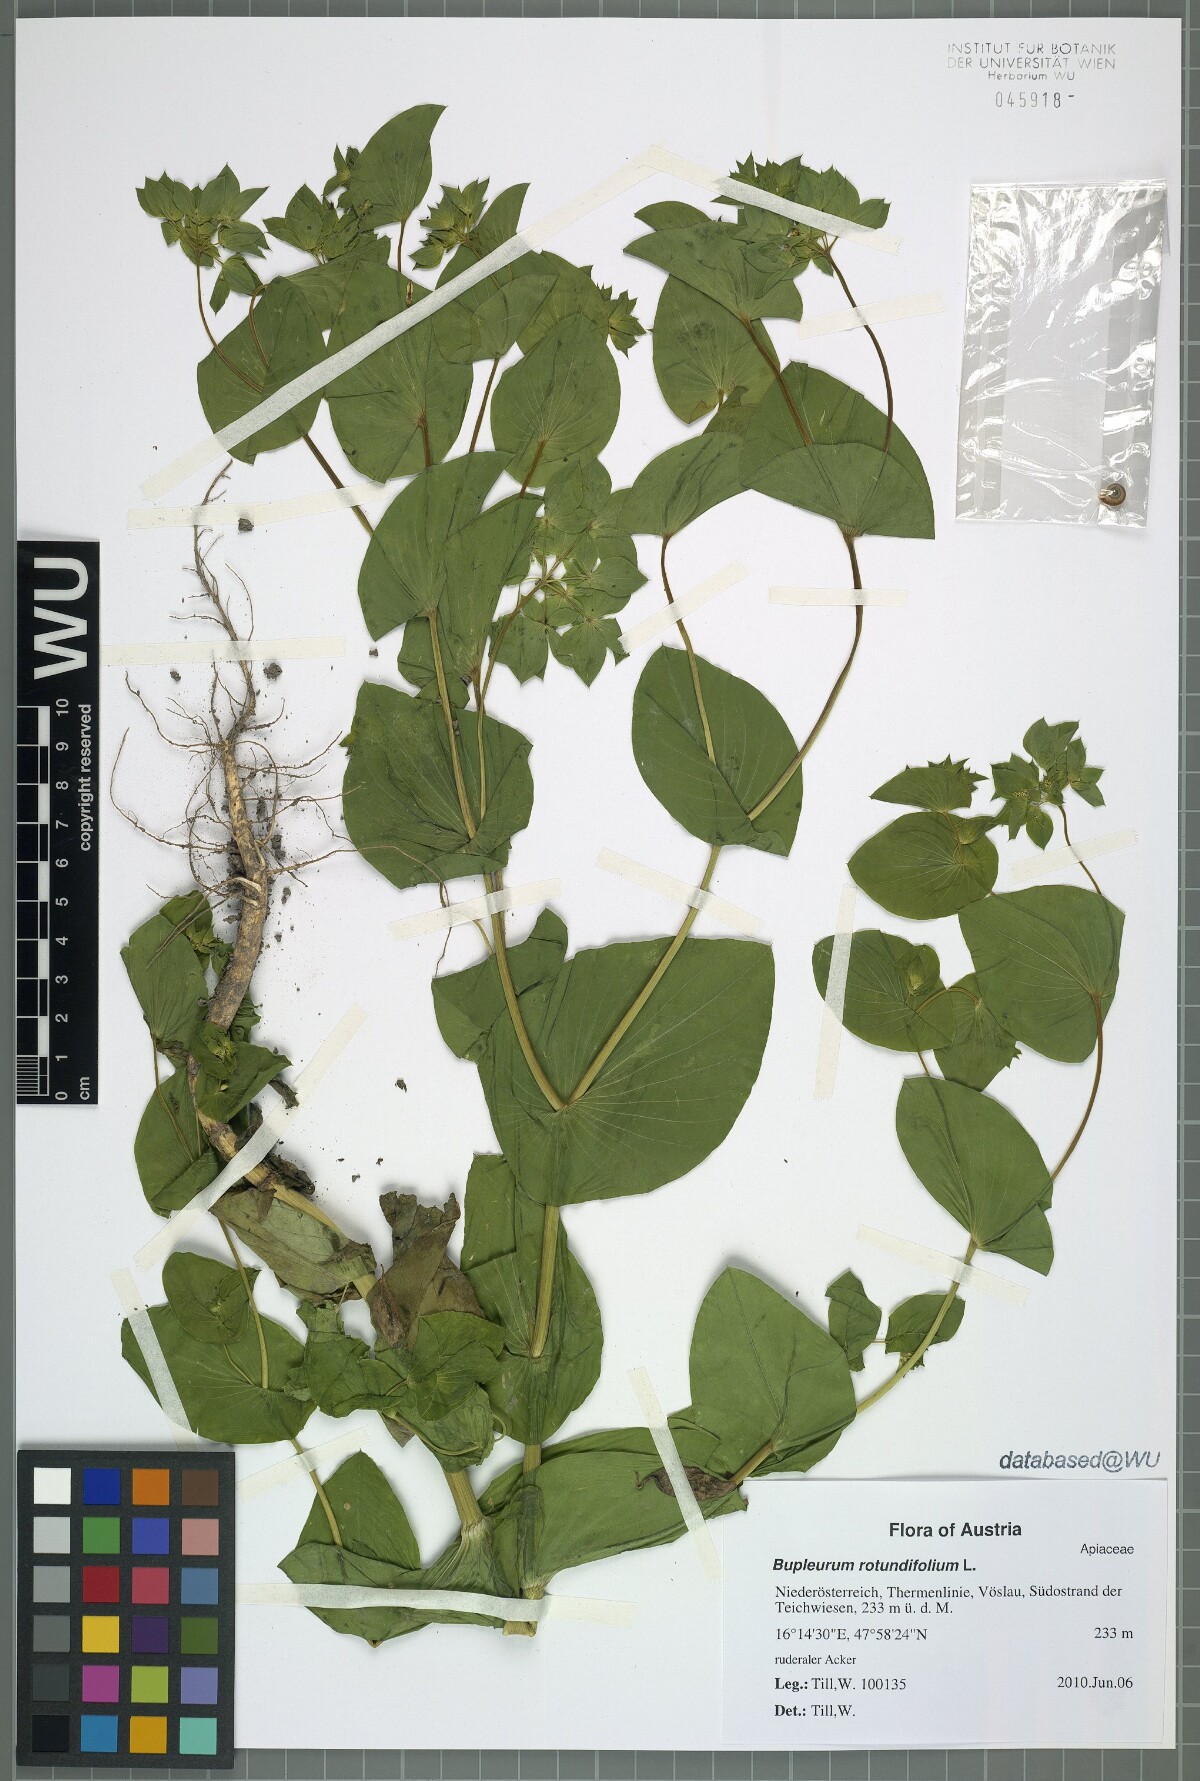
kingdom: Plantae
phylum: Tracheophyta
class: Magnoliopsida
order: Apiales
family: Apiaceae
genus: Bupleurum
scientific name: Bupleurum rotundifolium
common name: Thorow-wax
